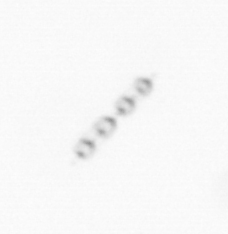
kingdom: Chromista
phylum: Ochrophyta
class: Bacillariophyceae
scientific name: Bacillariophyceae
